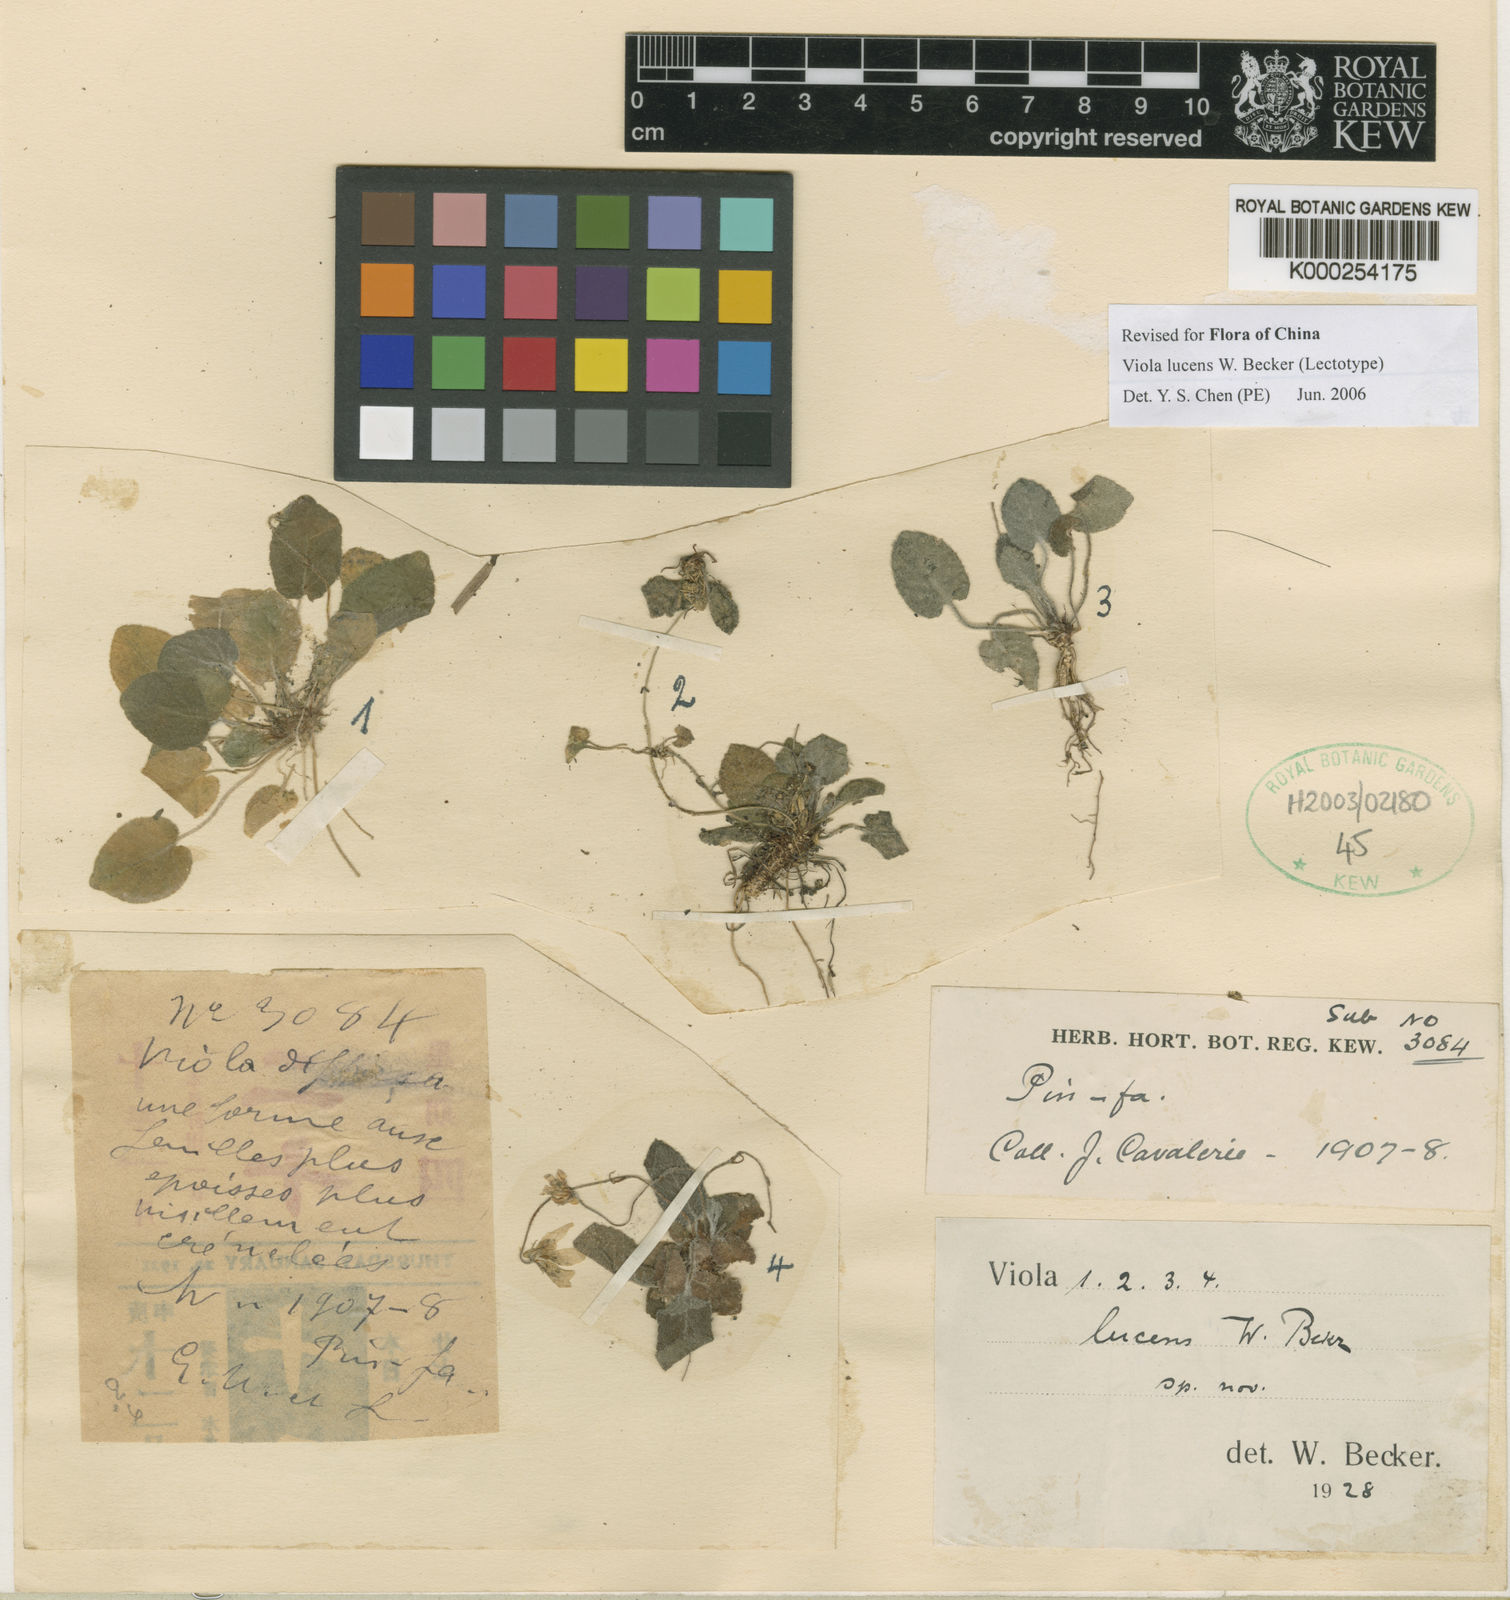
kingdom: Plantae
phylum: Tracheophyta
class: Magnoliopsida
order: Malpighiales
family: Violaceae
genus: Viola
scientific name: Viola lucens
